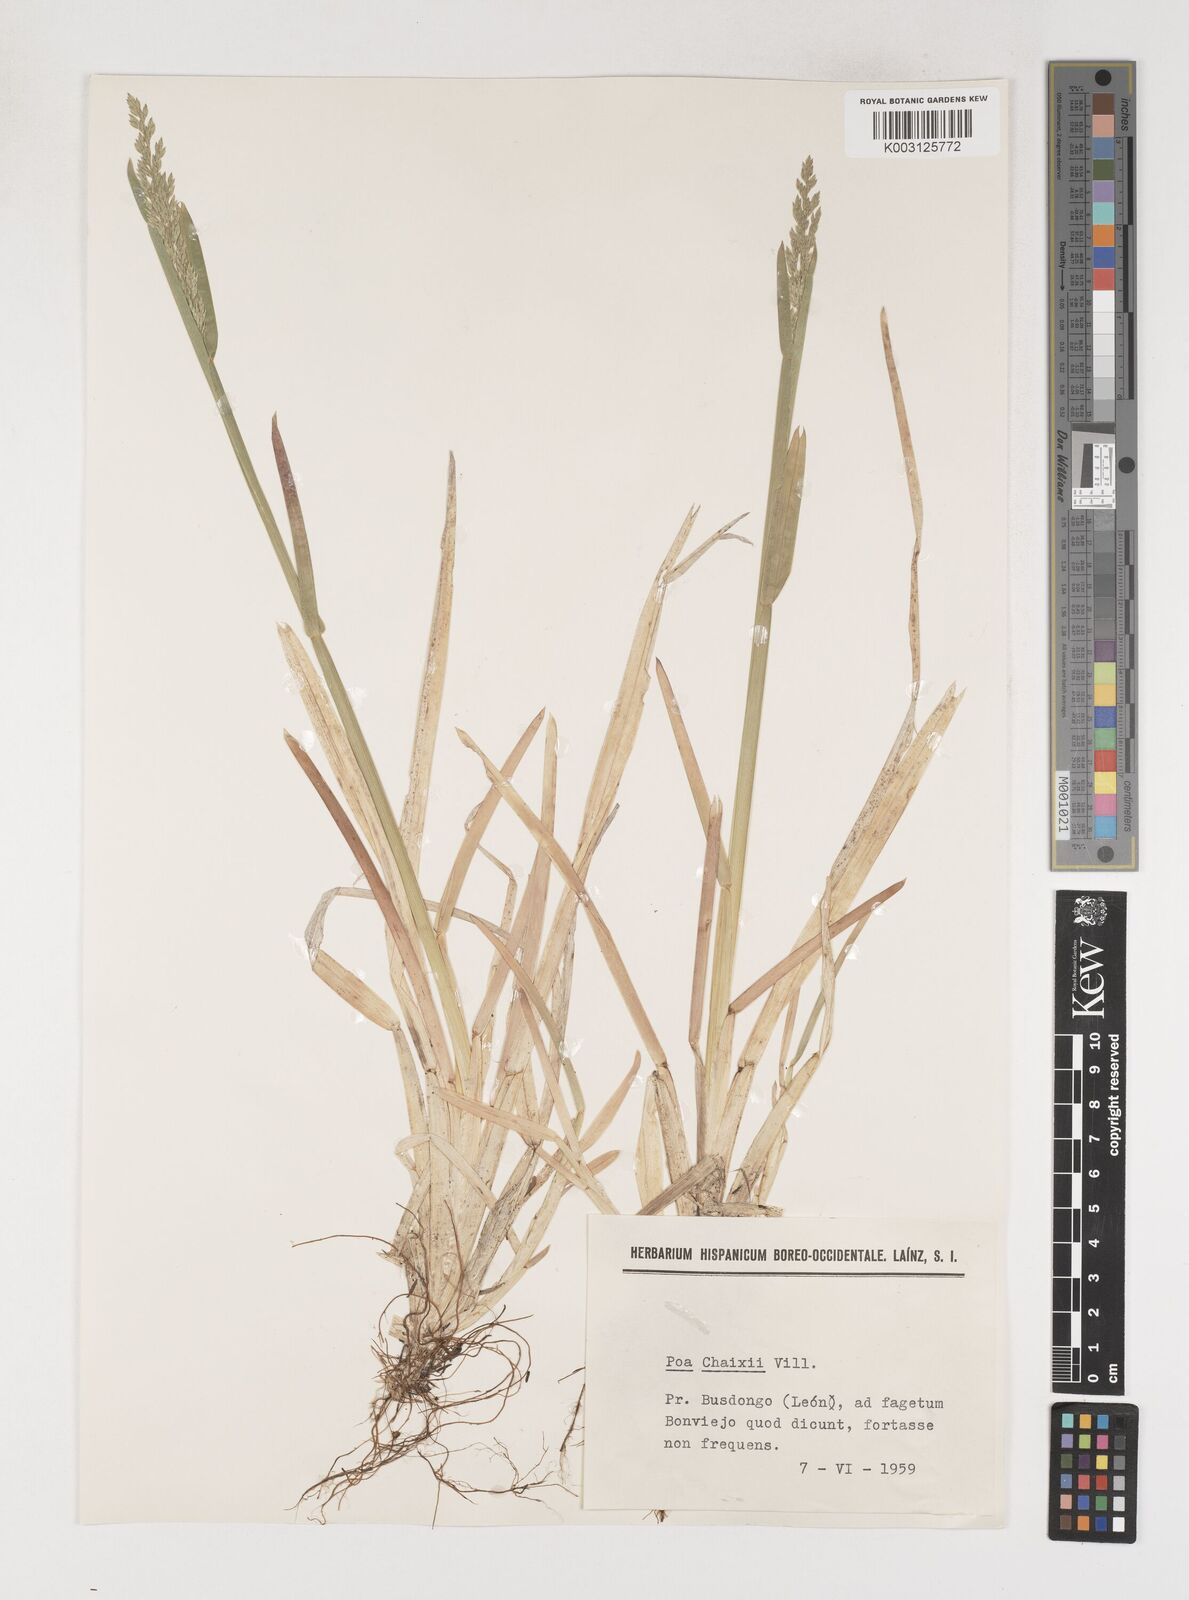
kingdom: Plantae
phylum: Tracheophyta
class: Liliopsida
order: Poales
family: Poaceae
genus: Poa
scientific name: Poa chaixii
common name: Broad-leaved meadow-grass
